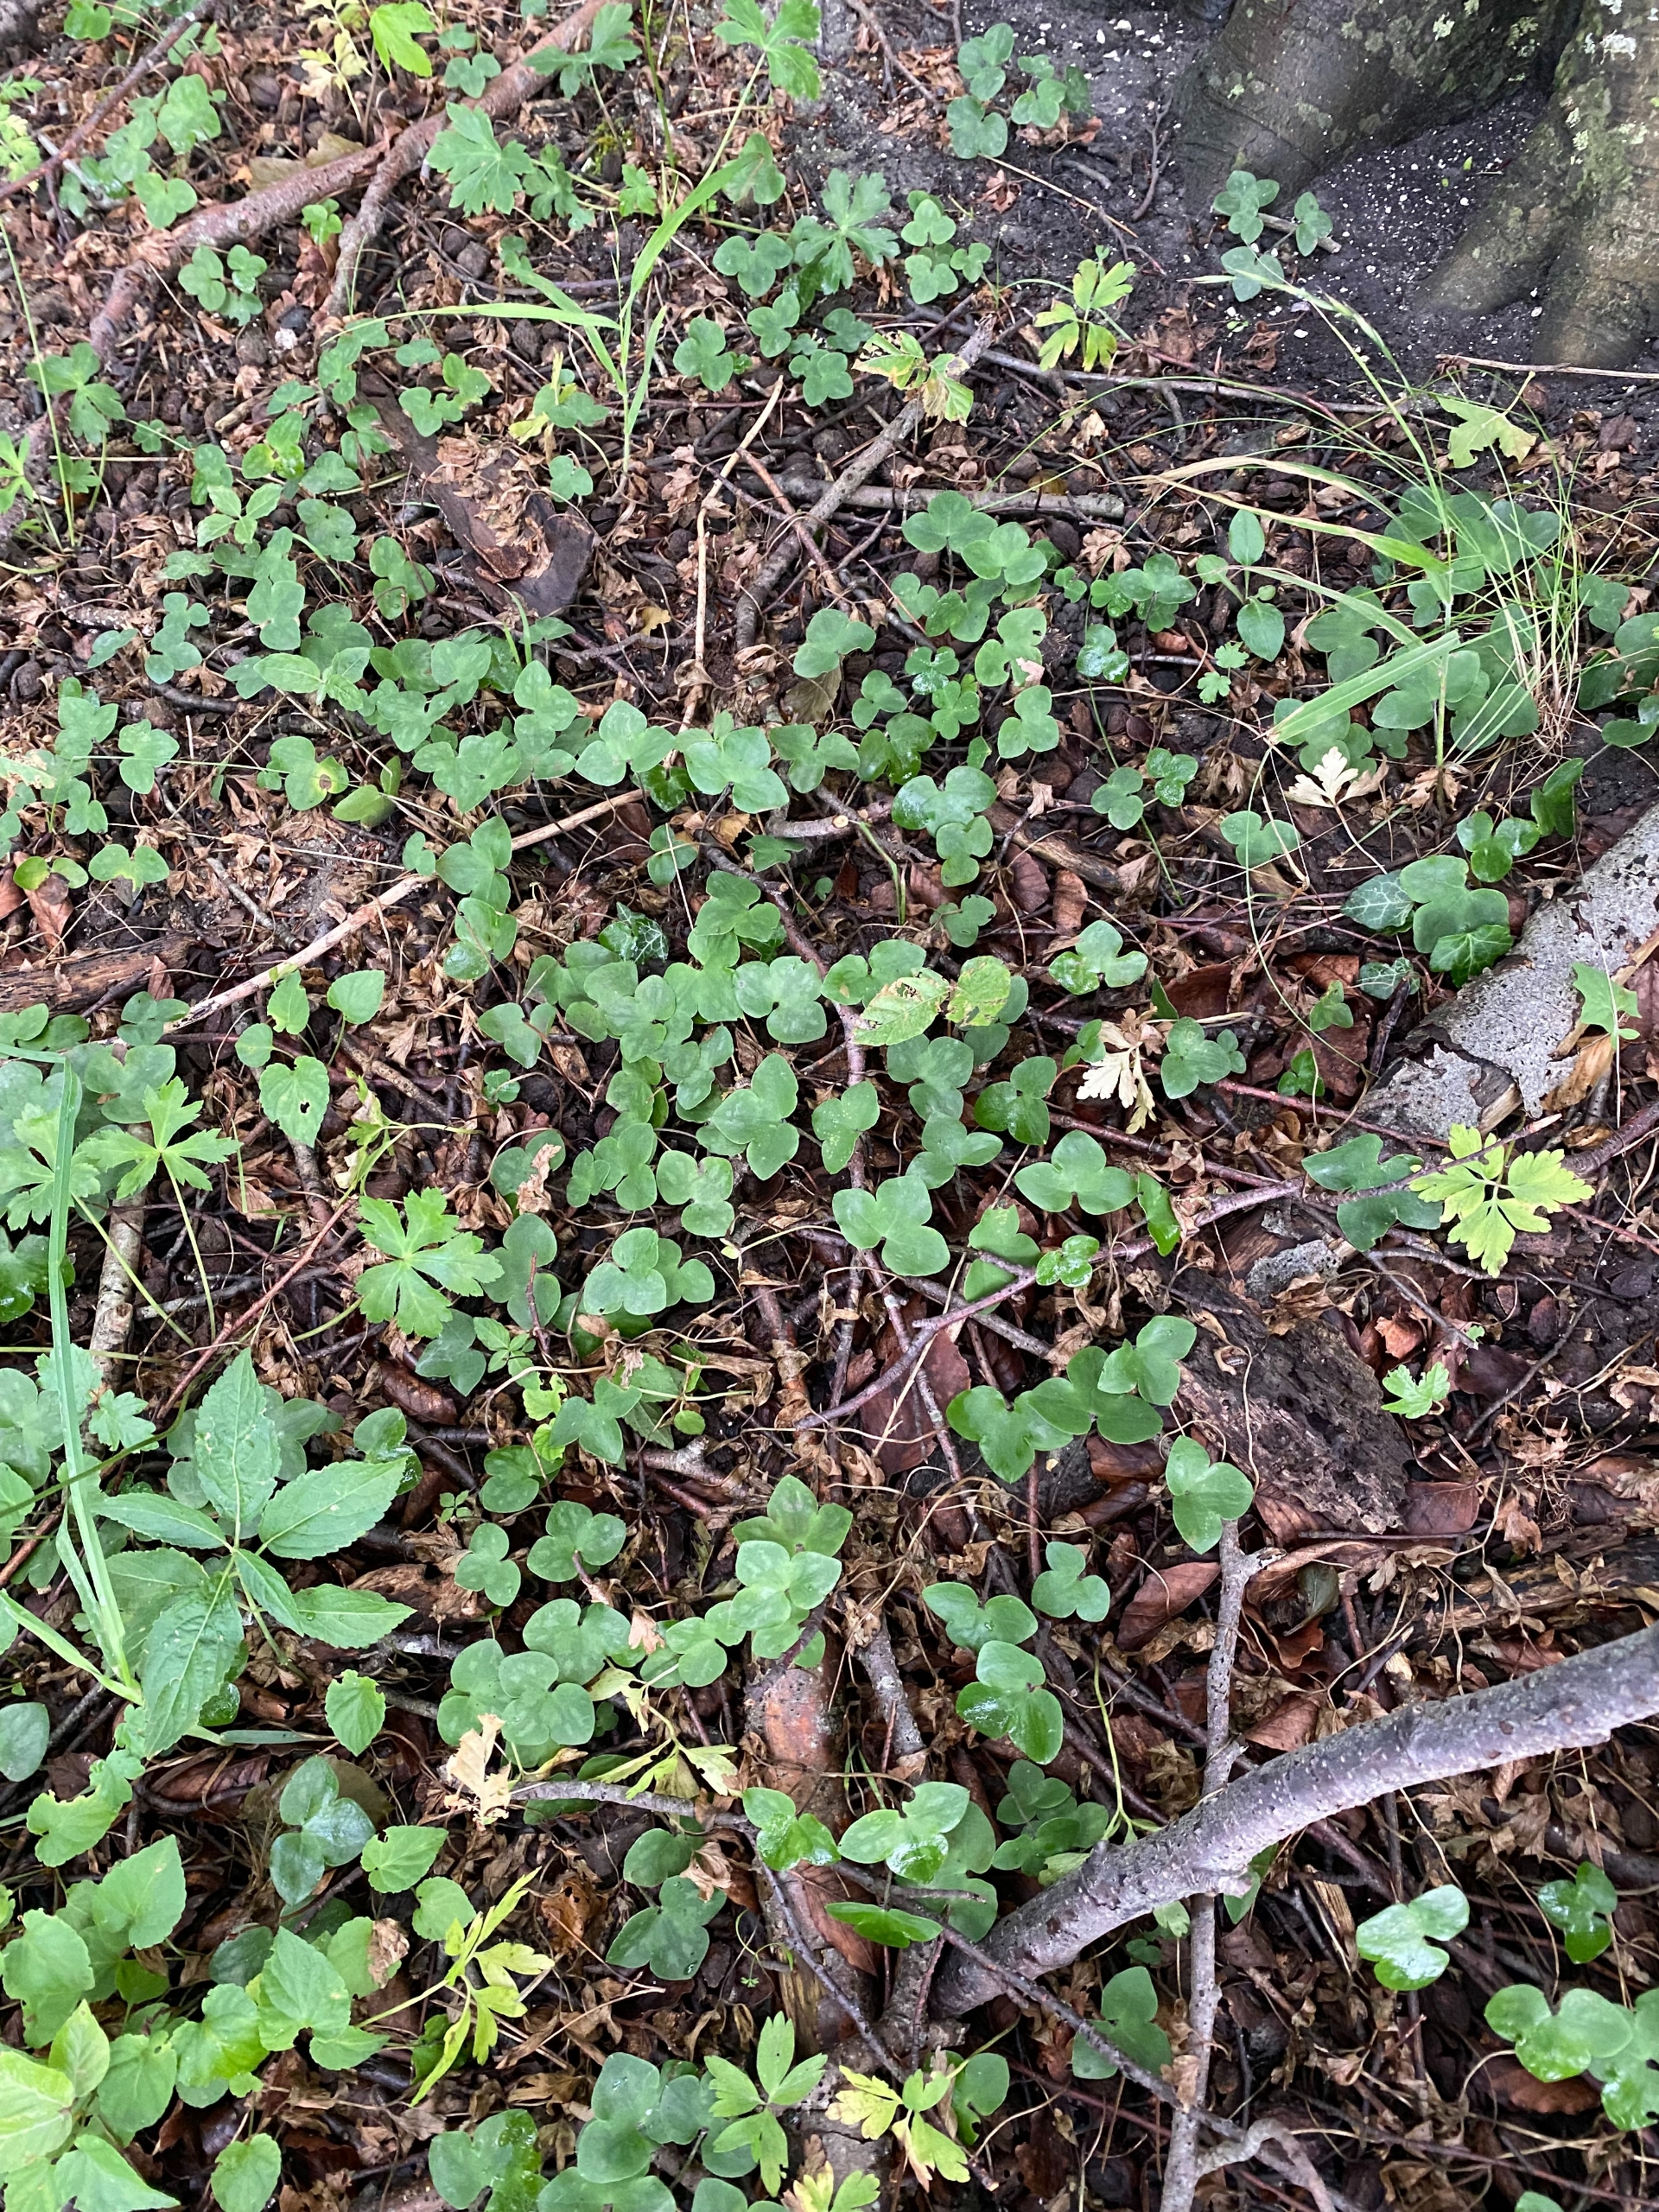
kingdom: Plantae
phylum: Tracheophyta
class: Magnoliopsida
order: Ranunculales
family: Ranunculaceae
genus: Hepatica
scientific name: Hepatica nobilis
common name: Blå anemone
